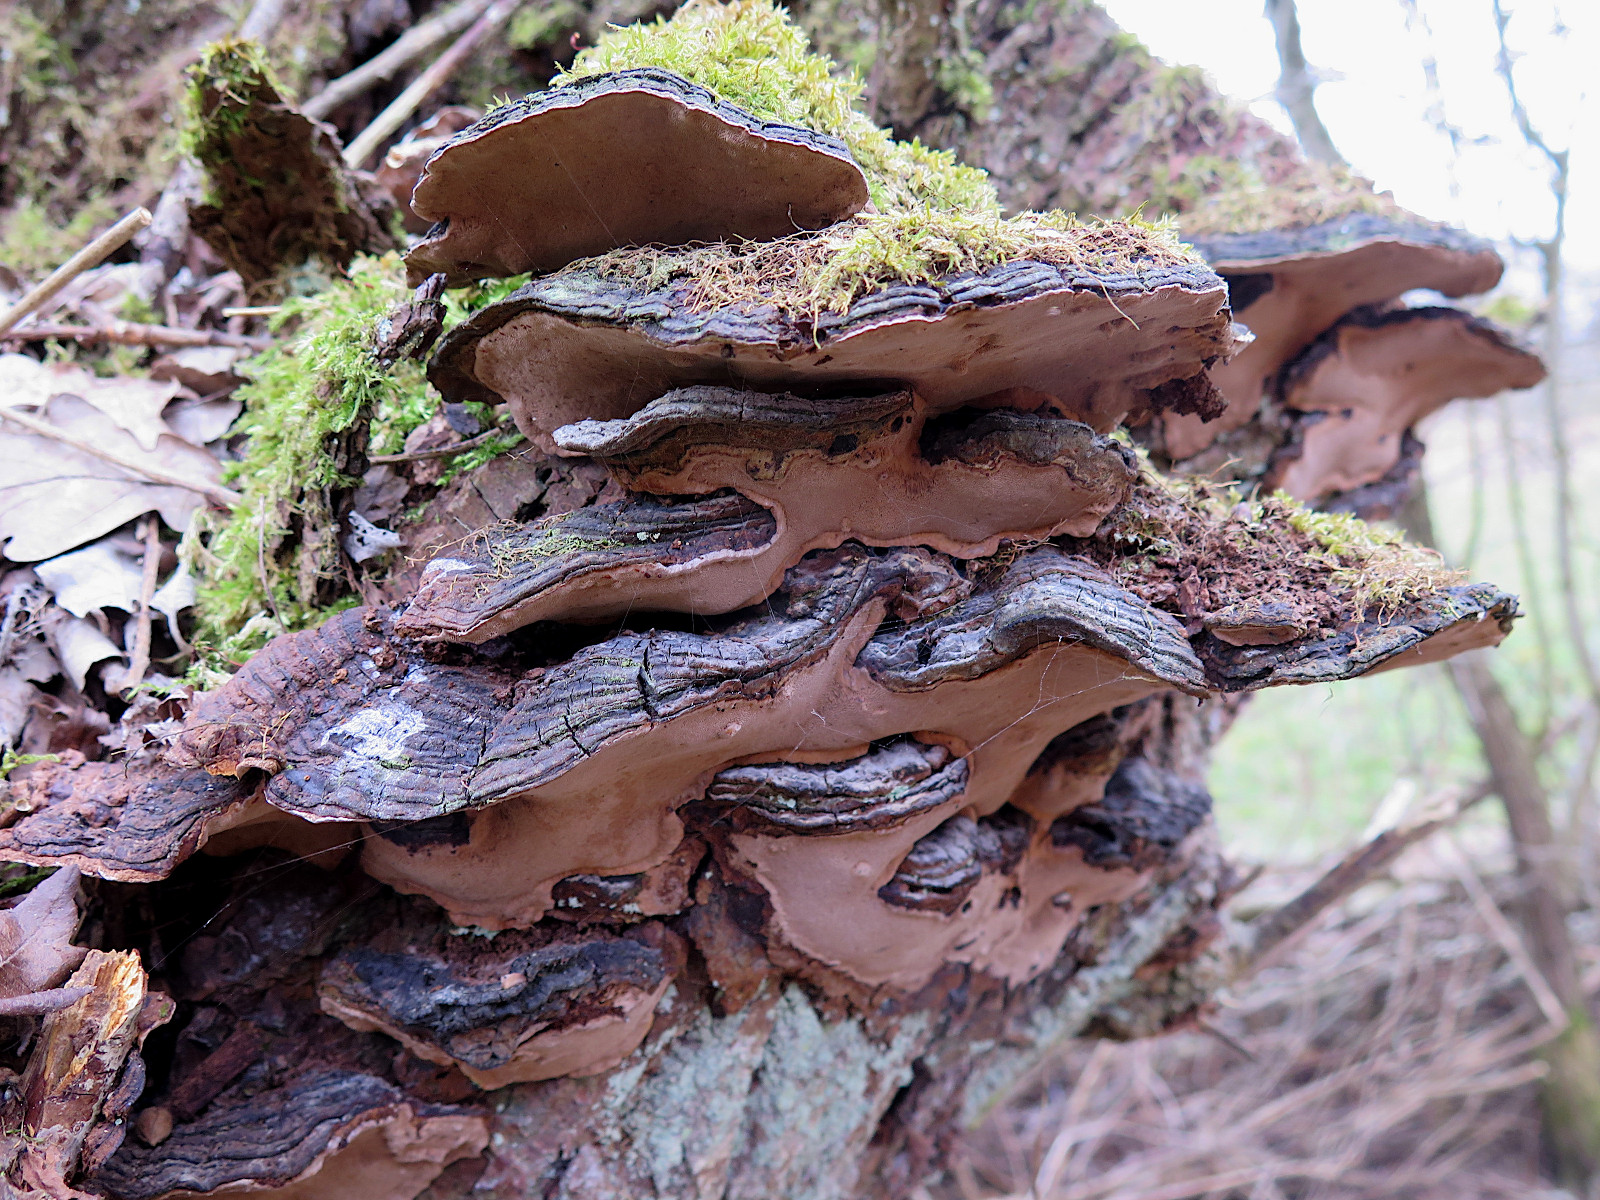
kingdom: Fungi
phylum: Basidiomycota
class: Agaricomycetes
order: Hymenochaetales
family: Hymenochaetaceae
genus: Phellinopsis
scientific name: Phellinopsis conchata
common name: pile-ildporesvamp
